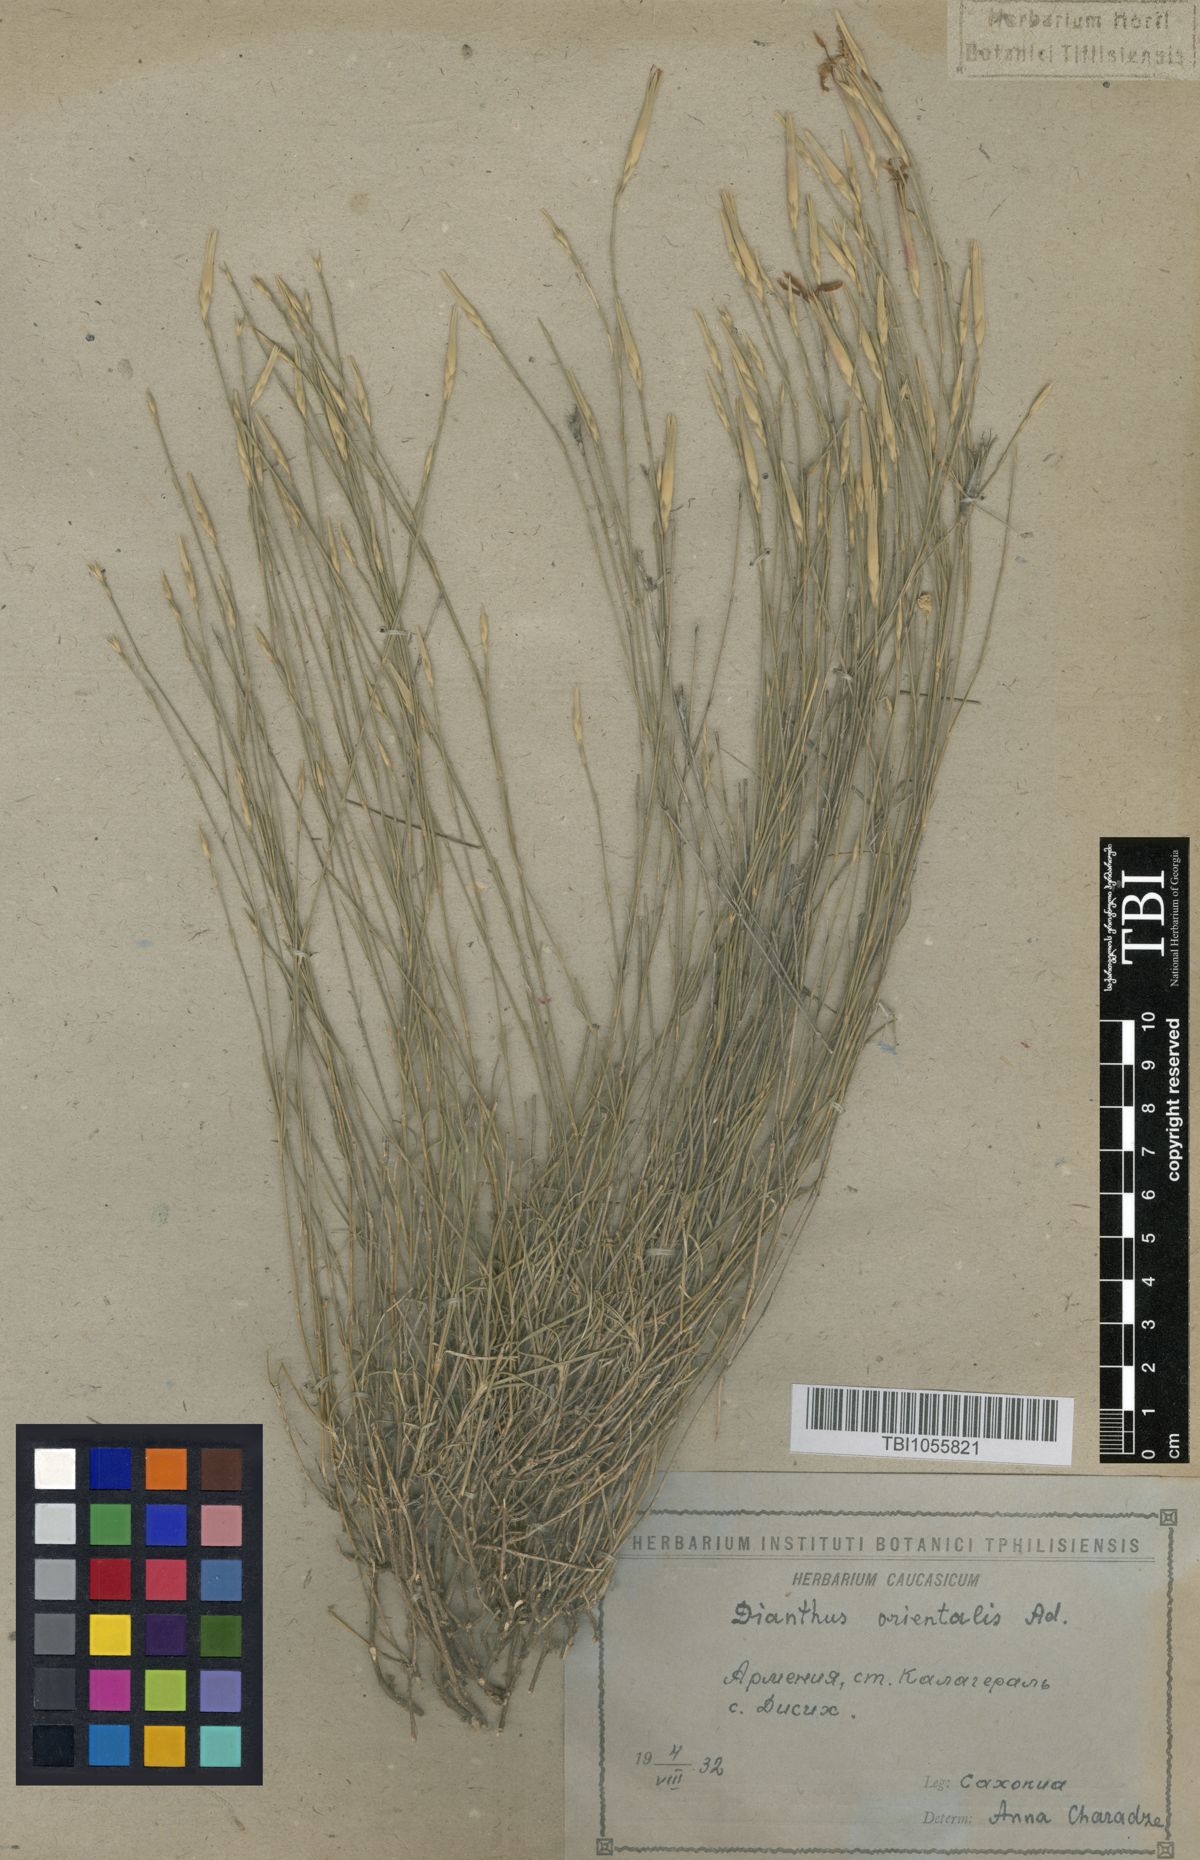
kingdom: Plantae
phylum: Tracheophyta
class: Magnoliopsida
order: Caryophyllales
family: Caryophyllaceae
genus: Dianthus
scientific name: Dianthus orientalis
